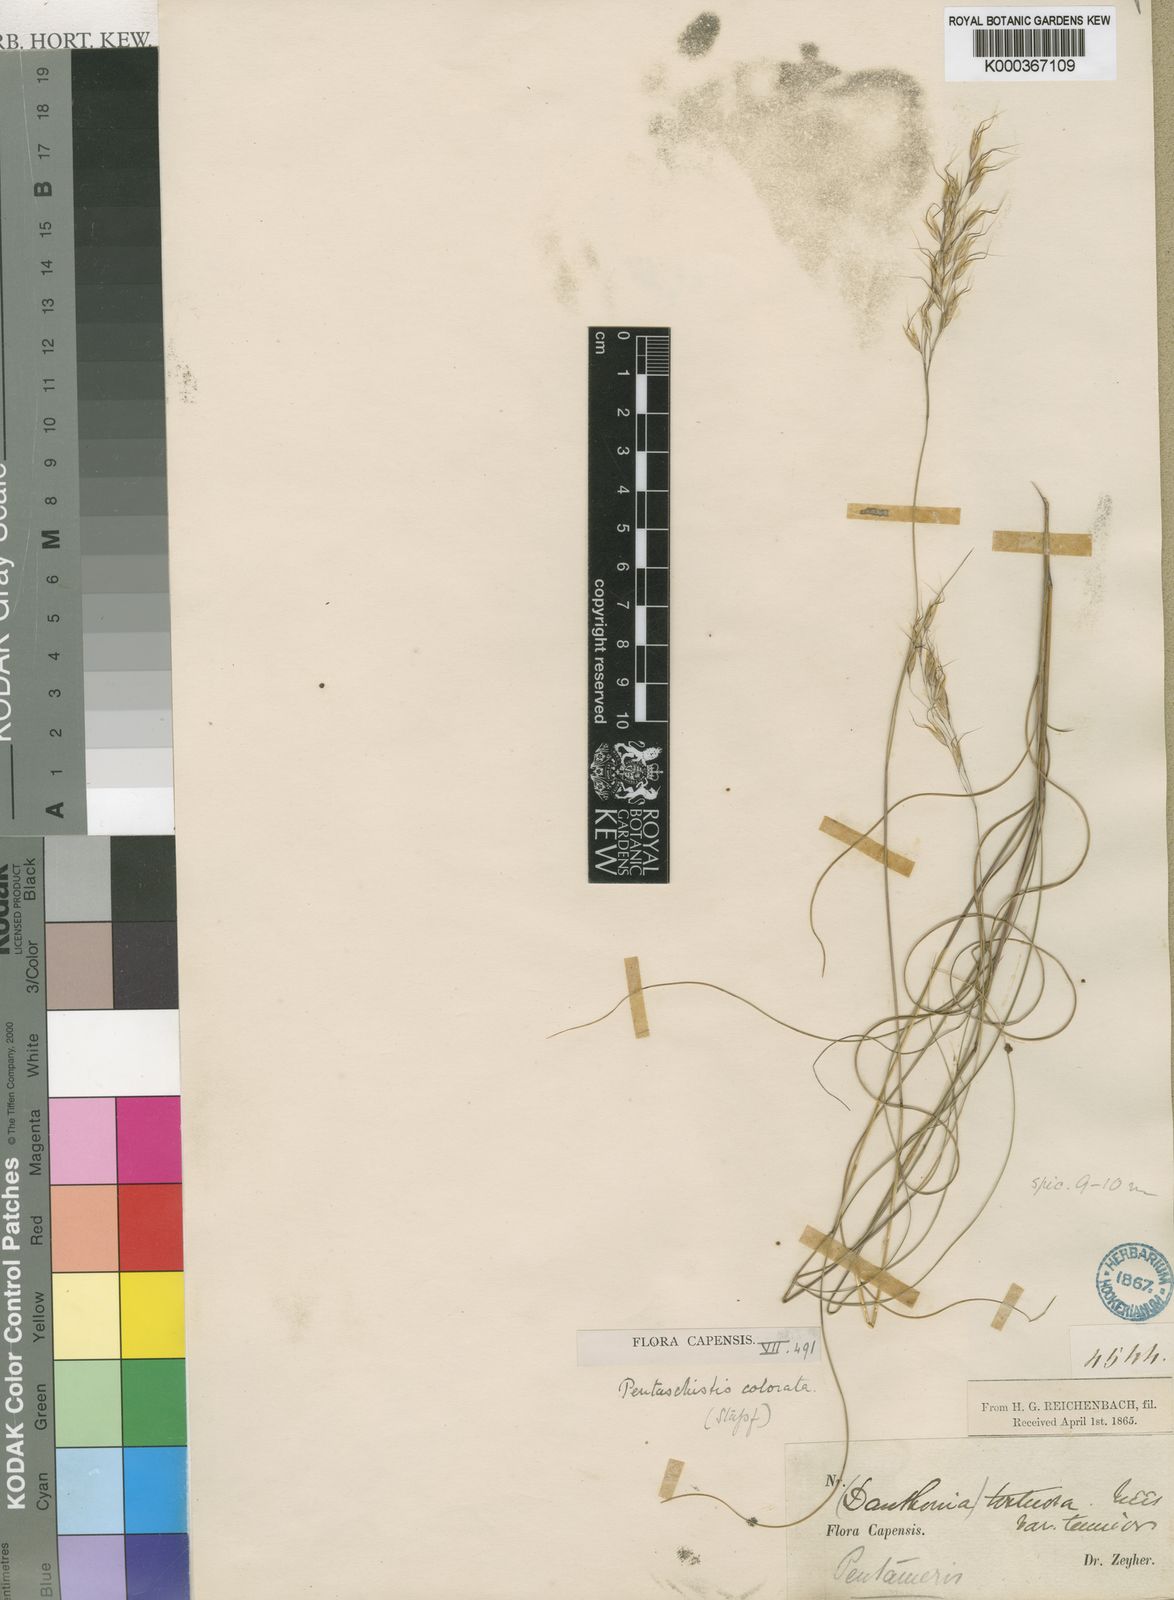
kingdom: Plantae
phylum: Tracheophyta
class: Liliopsida
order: Poales
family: Poaceae
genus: Pentameris
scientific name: Pentameris colorata
